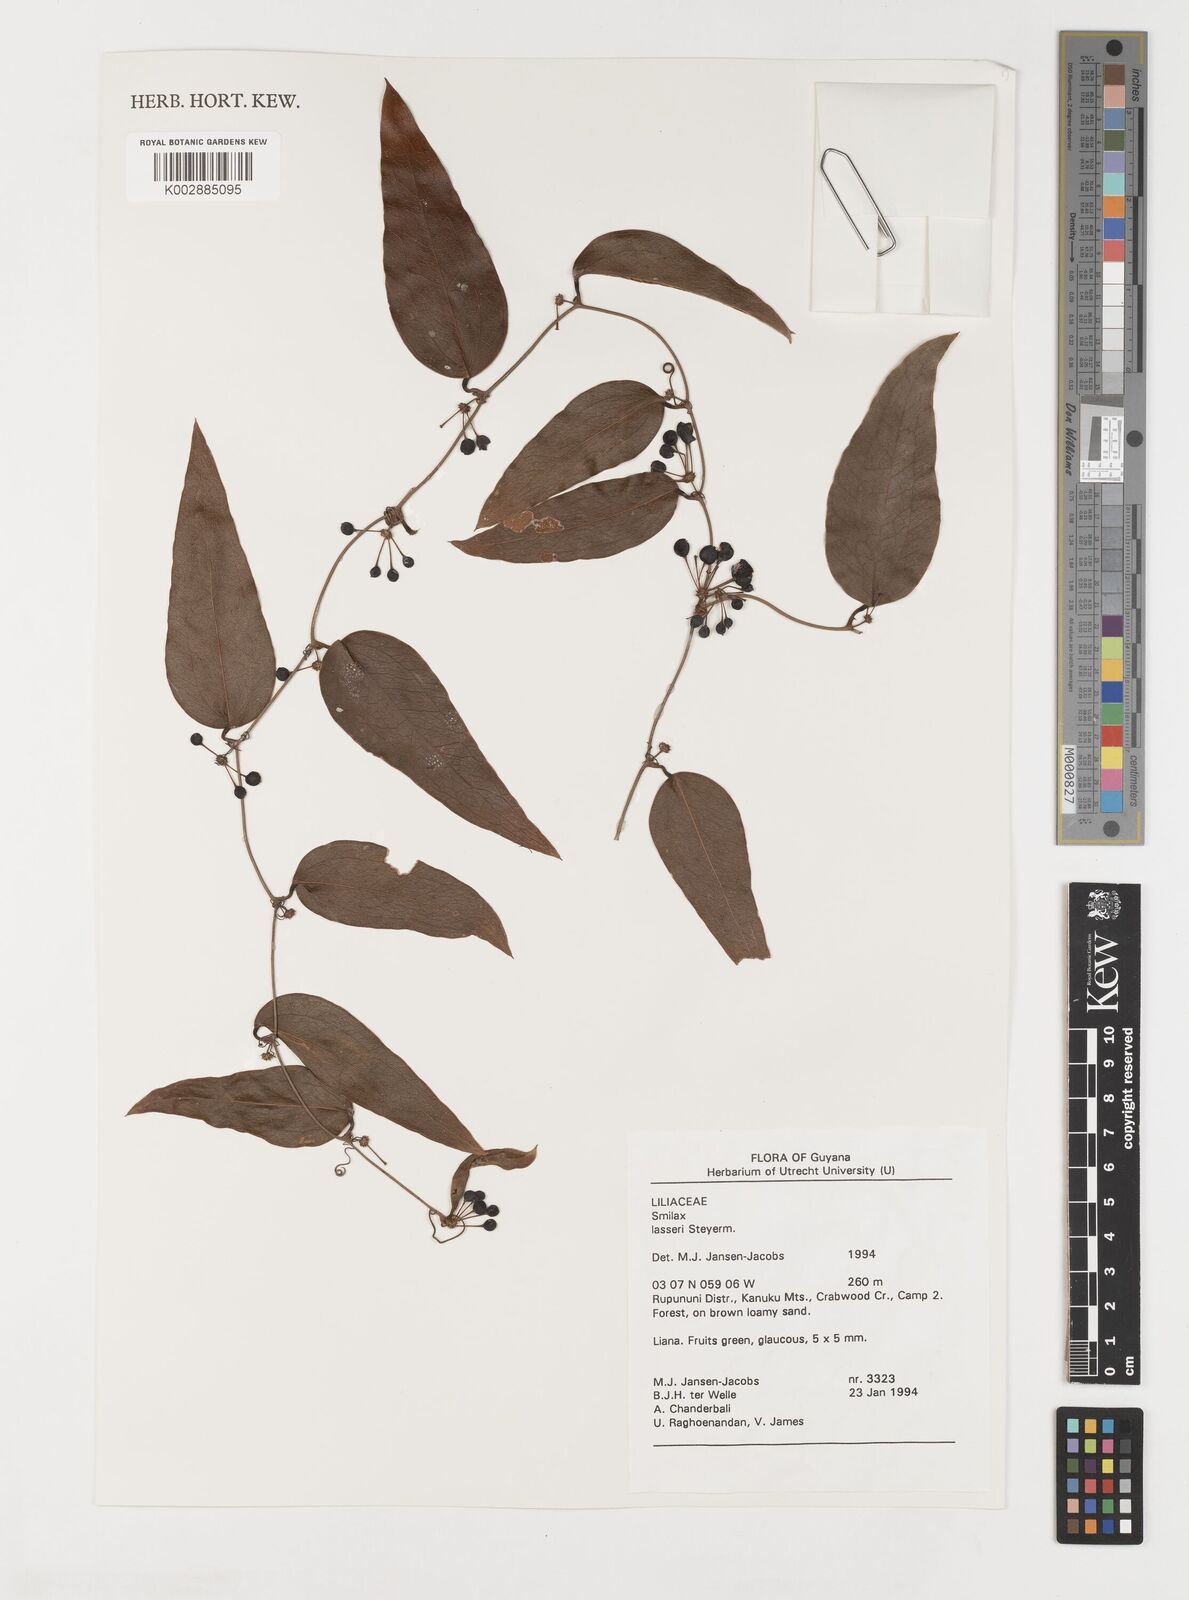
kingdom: Plantae
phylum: Tracheophyta
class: Liliopsida
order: Liliales
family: Smilacaceae
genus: Smilax
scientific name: Smilax domingensis
